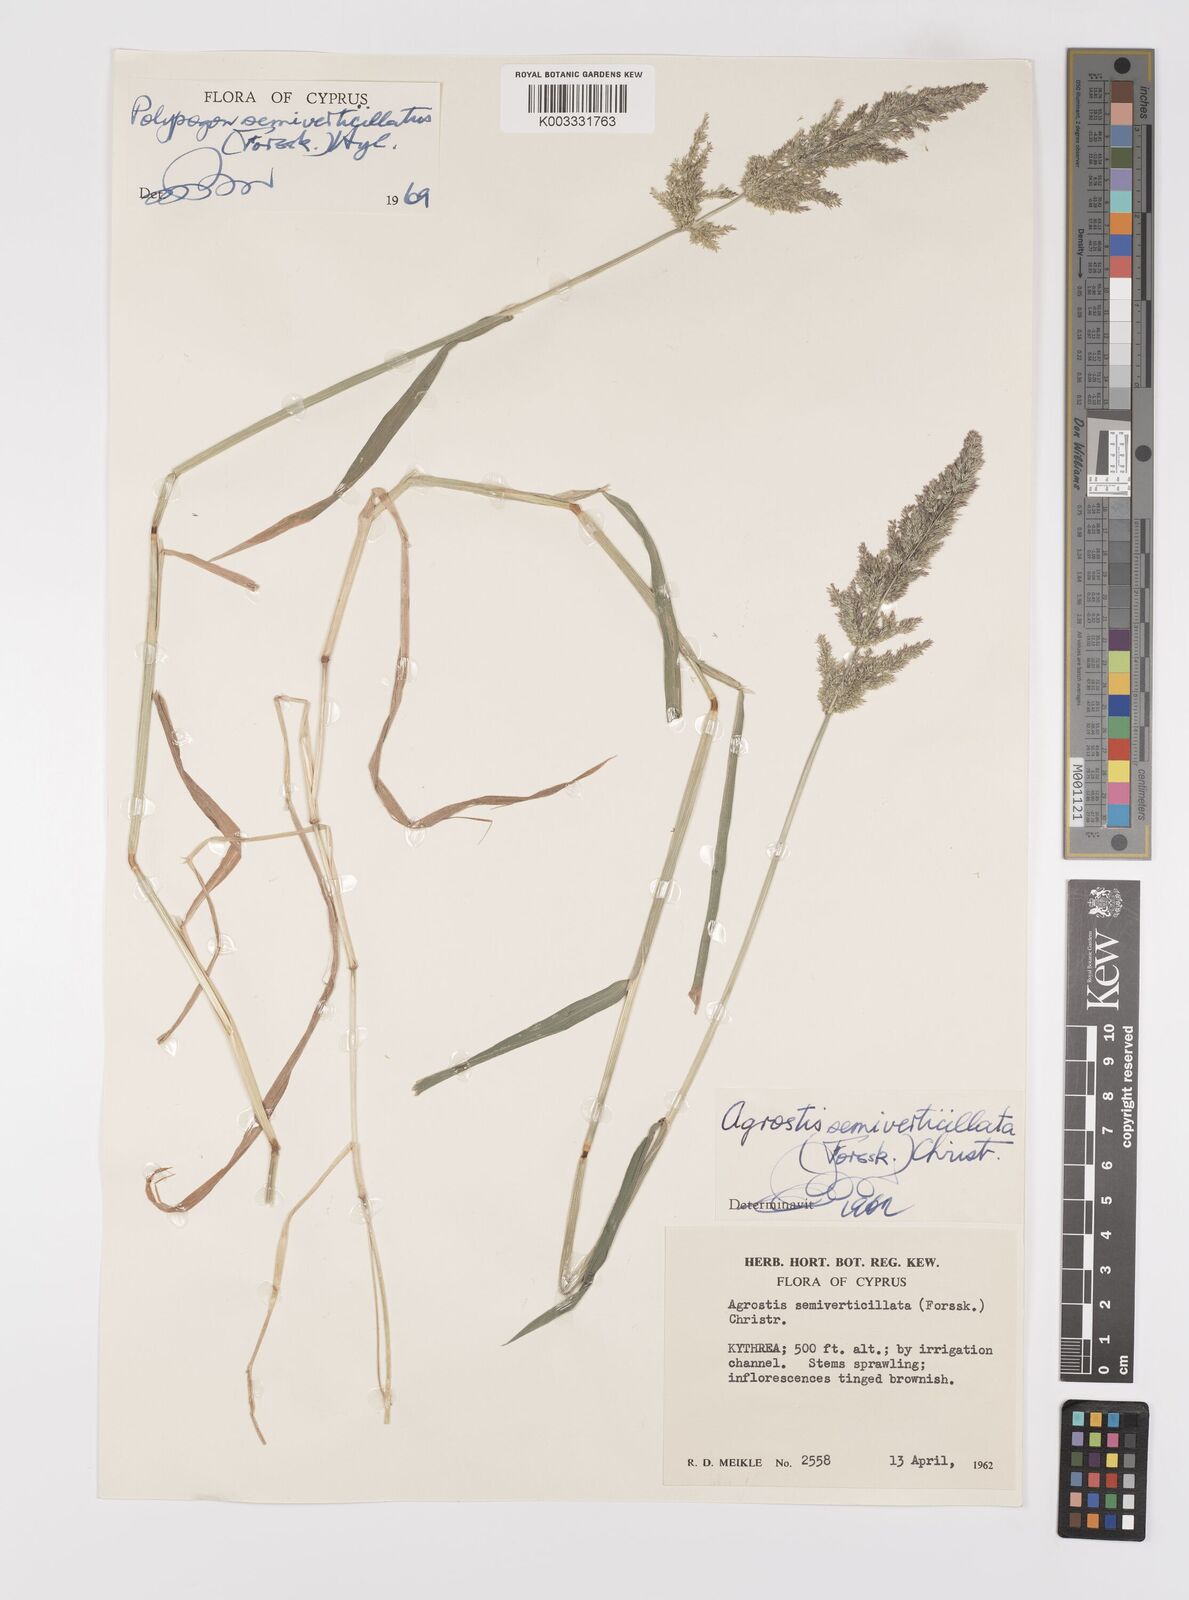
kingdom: Plantae
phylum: Tracheophyta
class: Liliopsida
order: Poales
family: Poaceae
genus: Polypogon
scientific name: Polypogon viridis
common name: Water bent
